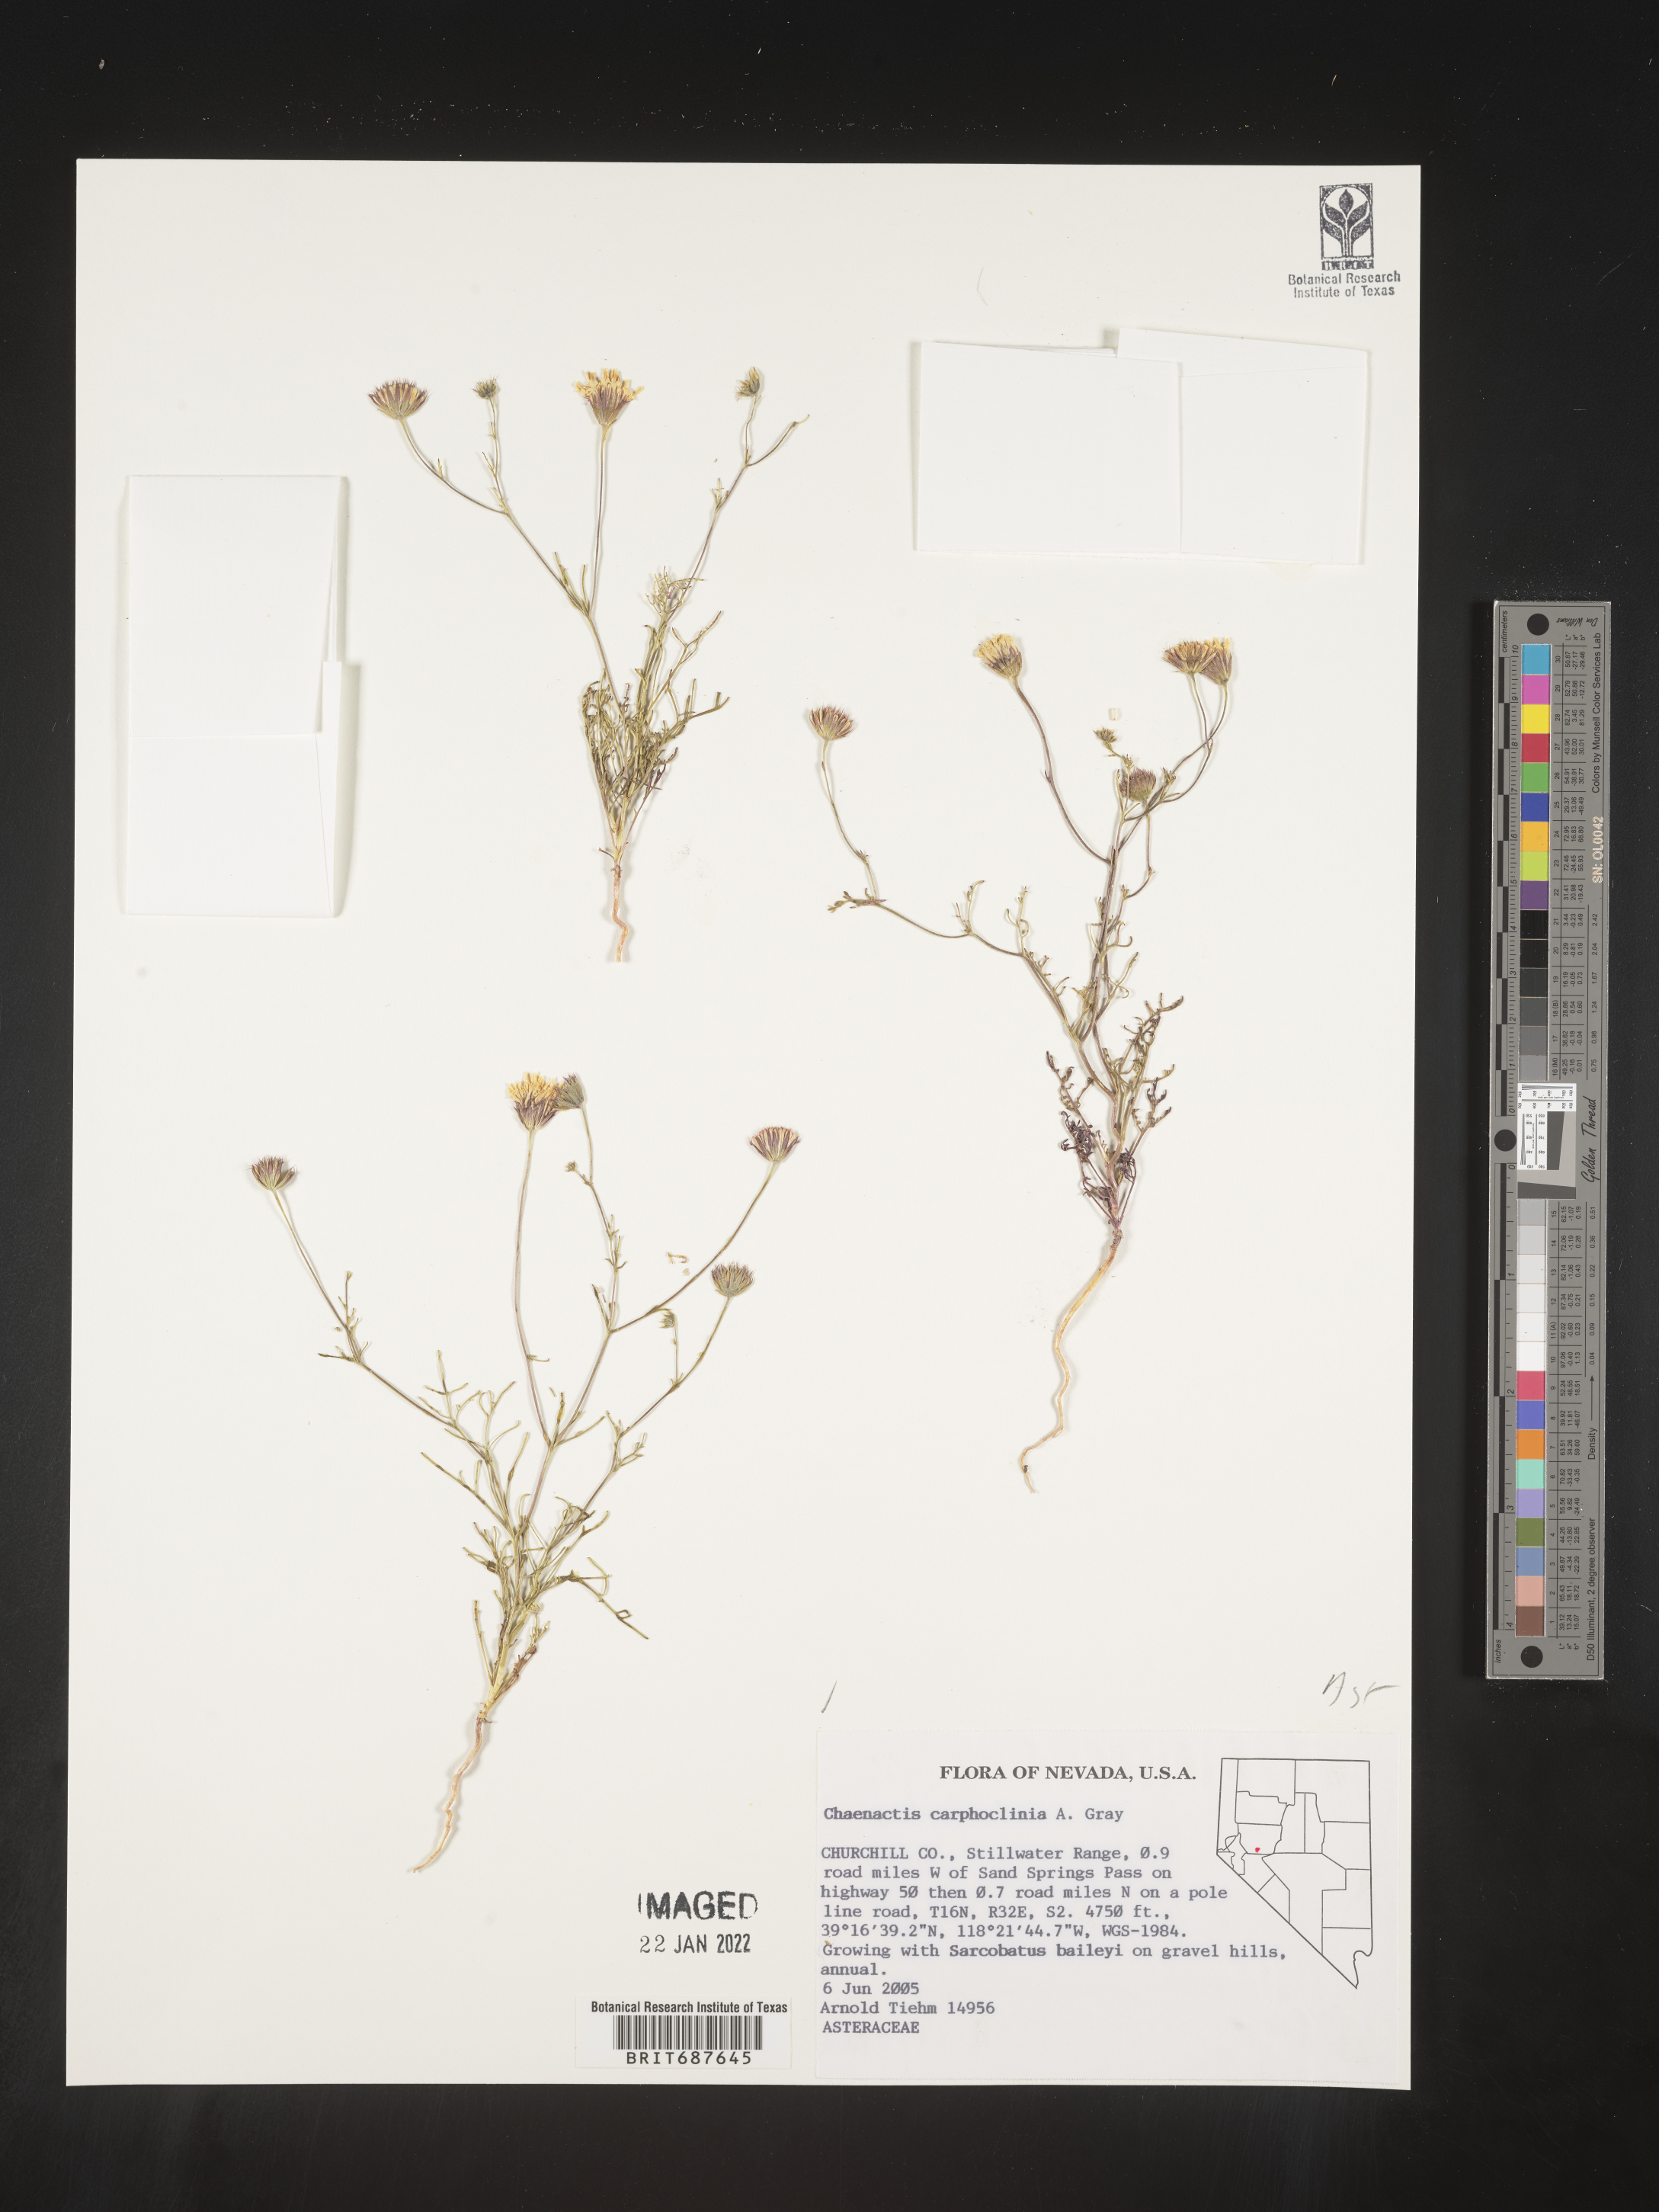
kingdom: Plantae
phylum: Tracheophyta
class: Magnoliopsida
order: Asterales
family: Asteraceae
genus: Chaenactis
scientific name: Chaenactis carphoclinia
